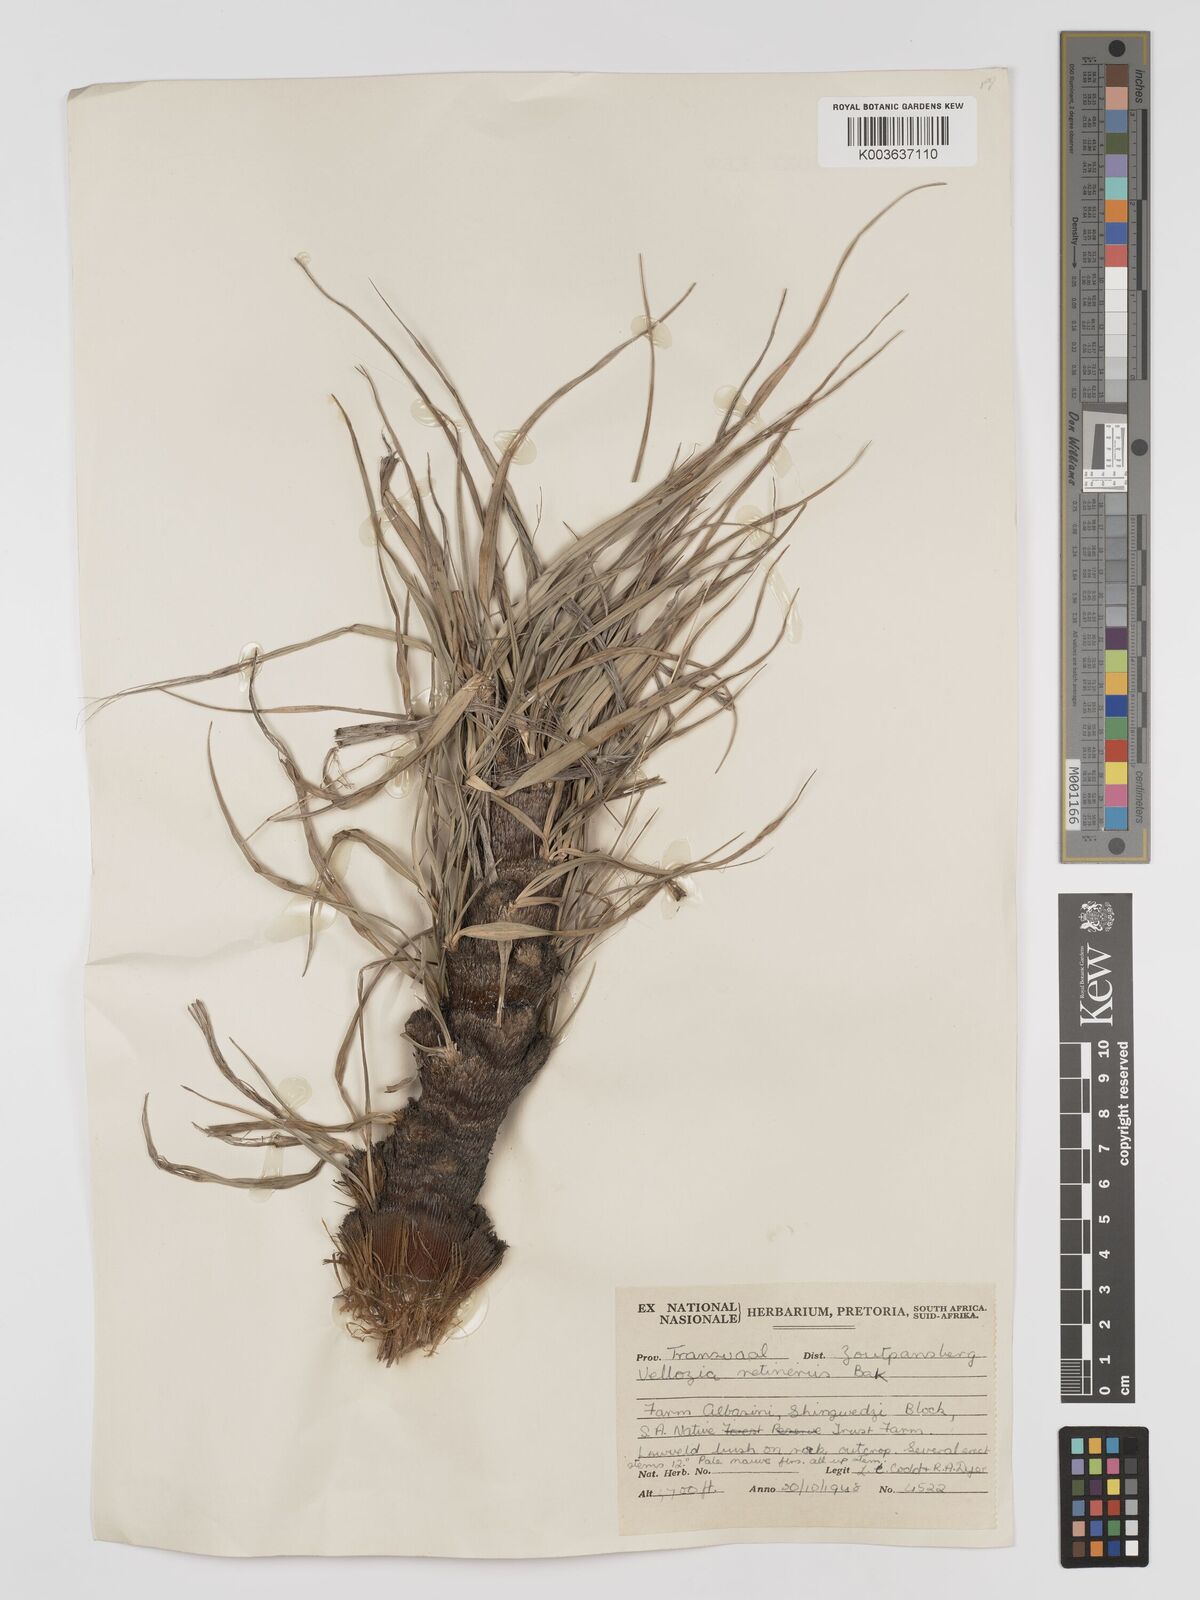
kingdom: Plantae
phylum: Tracheophyta
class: Liliopsida
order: Pandanales
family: Velloziaceae
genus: Xerophyta
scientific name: Xerophyta retinervis
